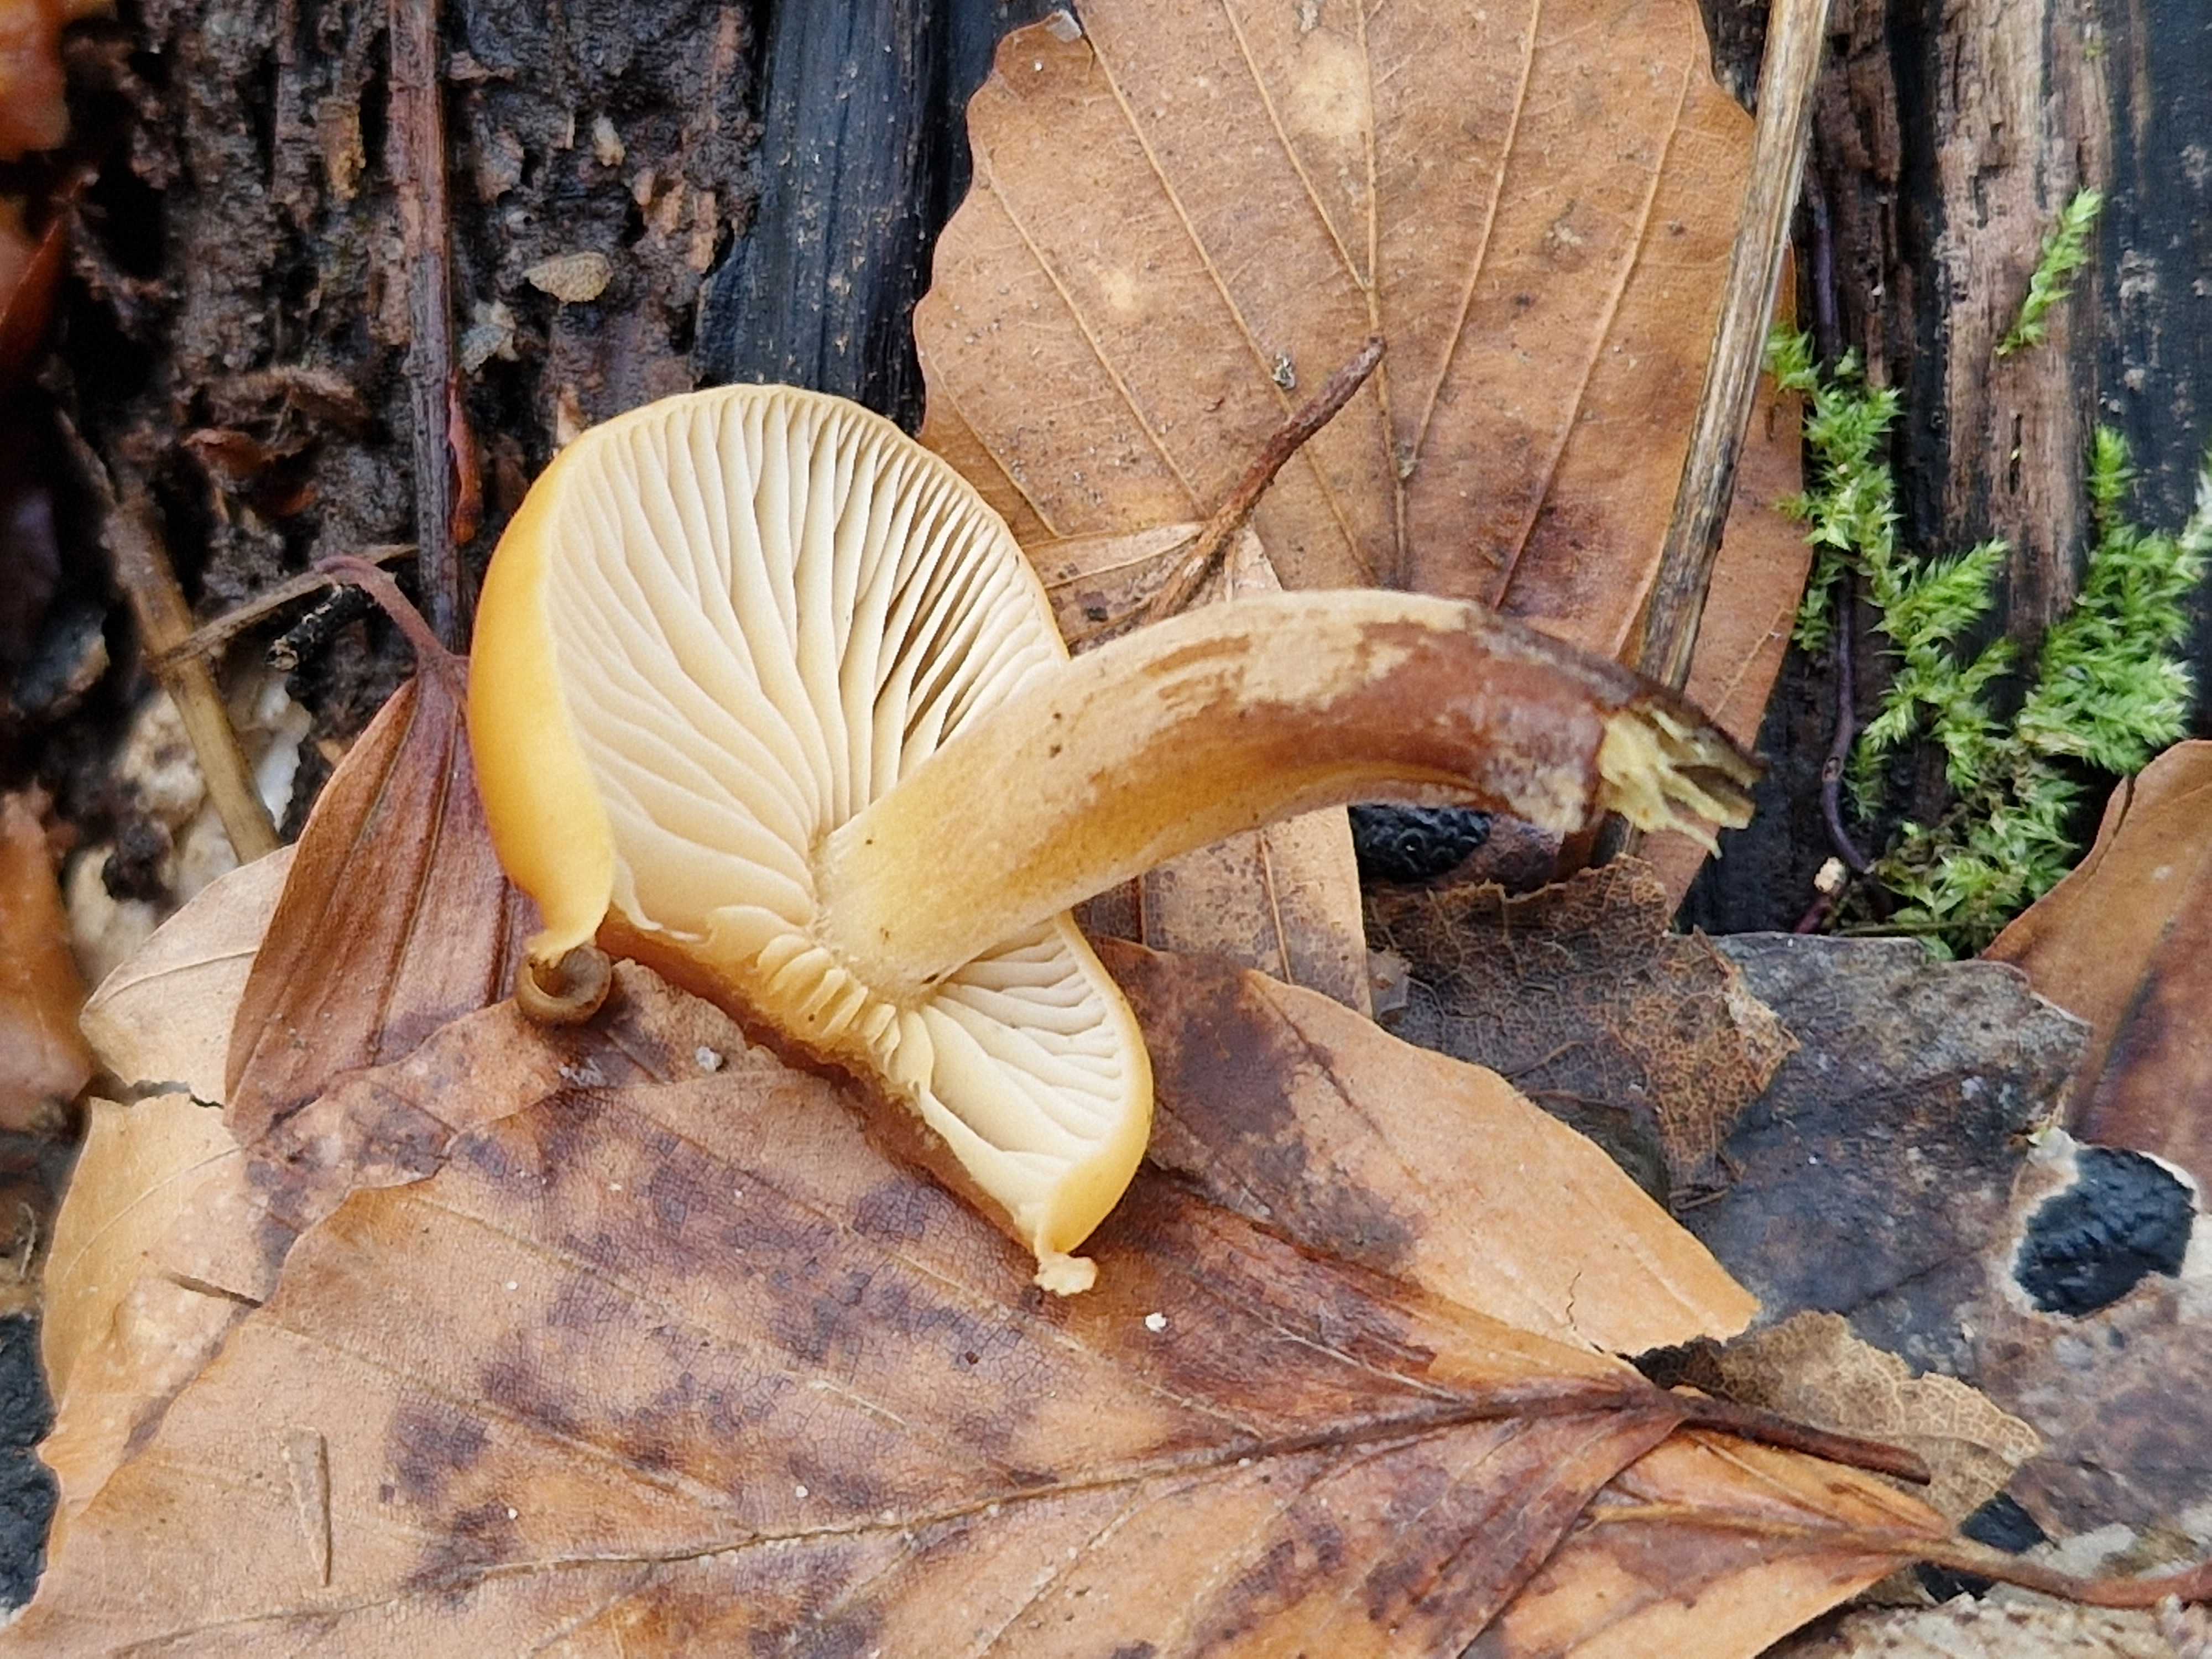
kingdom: Fungi
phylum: Basidiomycota
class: Agaricomycetes
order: Agaricales
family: Physalacriaceae
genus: Flammulina
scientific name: Flammulina velutipes
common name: gul fløjlsfod
